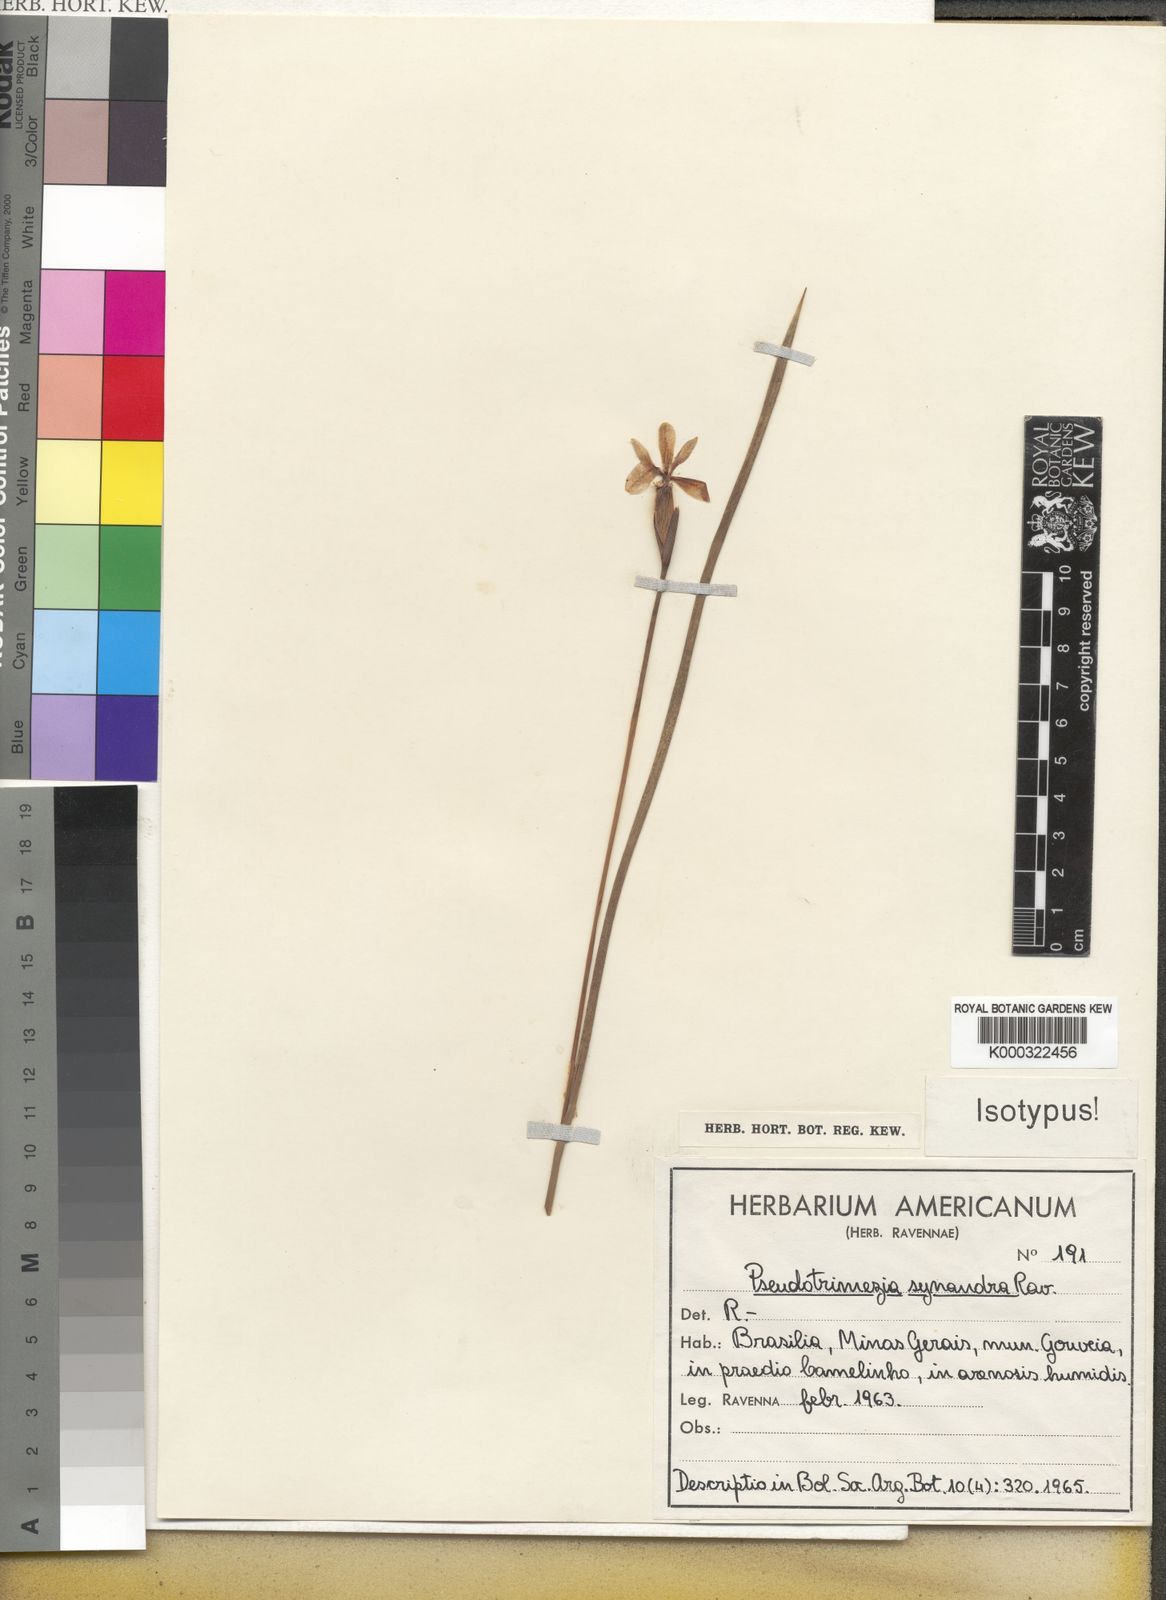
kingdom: Plantae
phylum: Tracheophyta
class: Liliopsida
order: Asparagales
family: Iridaceae
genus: Trimezia
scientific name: Trimezia synandra
